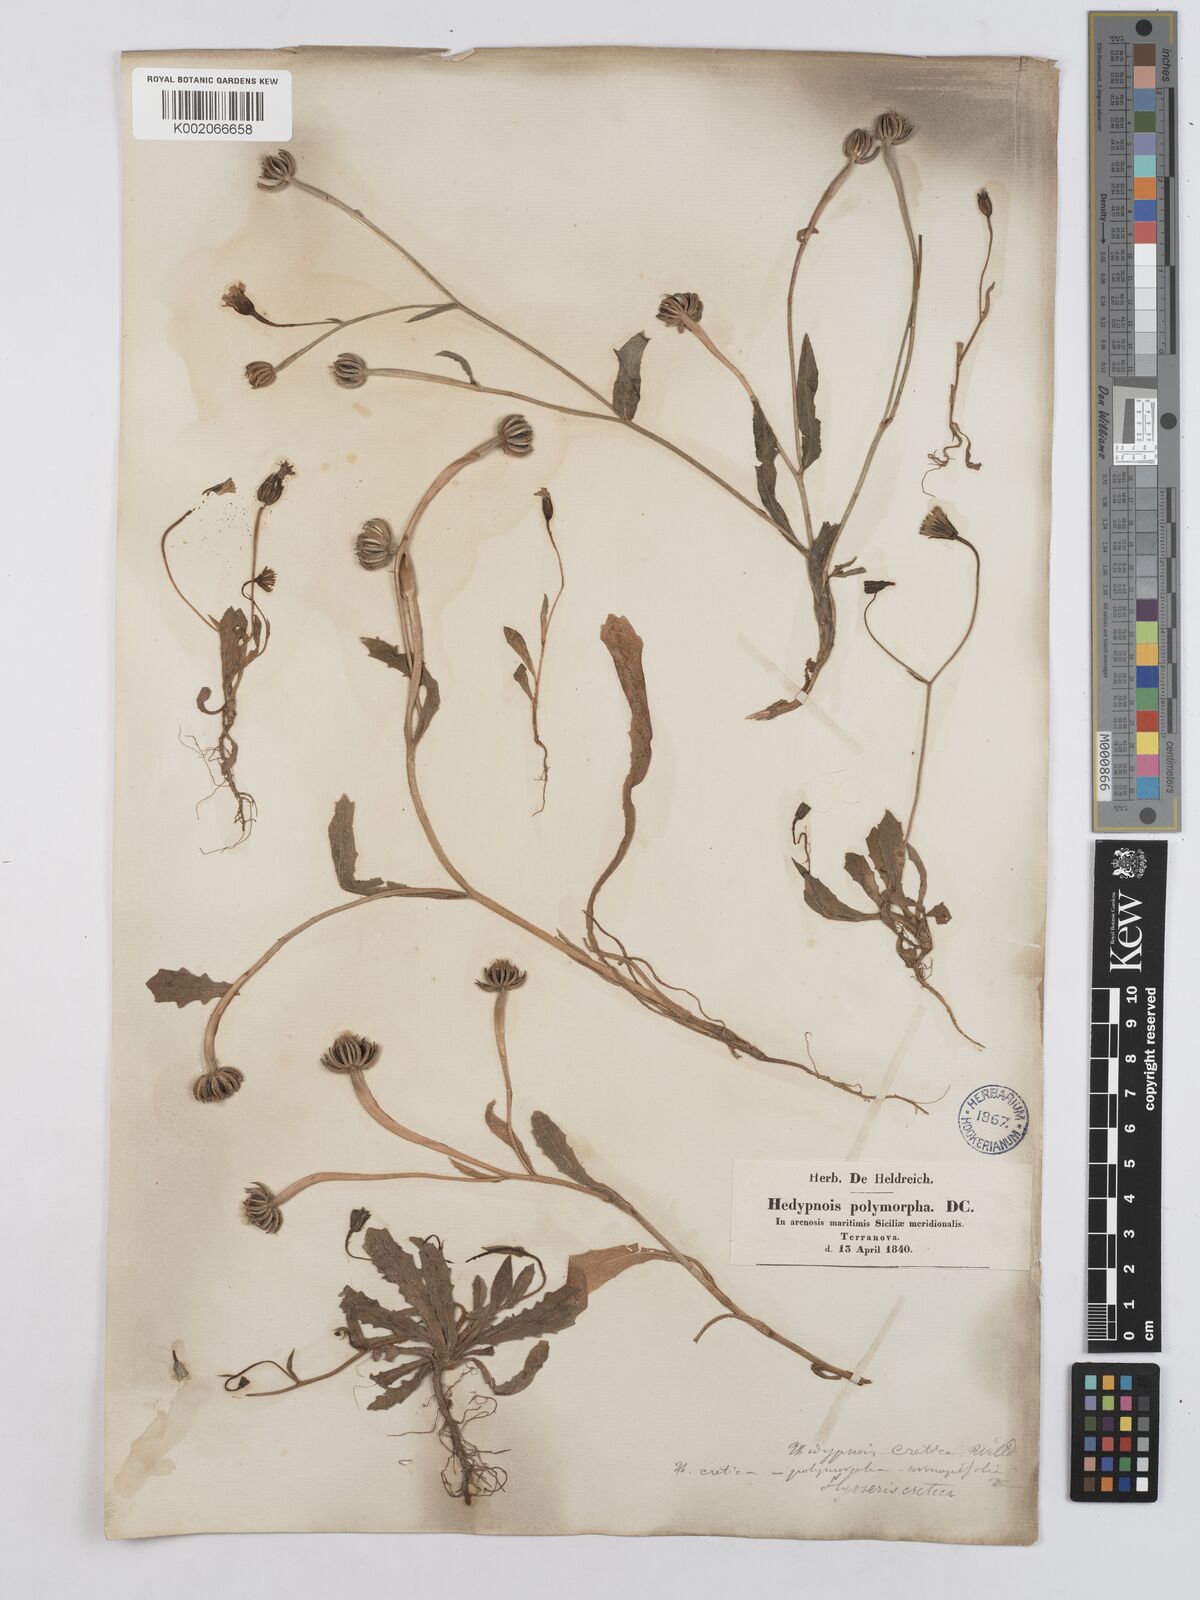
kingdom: Plantae
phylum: Tracheophyta
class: Magnoliopsida
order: Asterales
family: Asteraceae
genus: Hedypnois
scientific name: Hedypnois rhagadioloides
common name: Cretan weed
